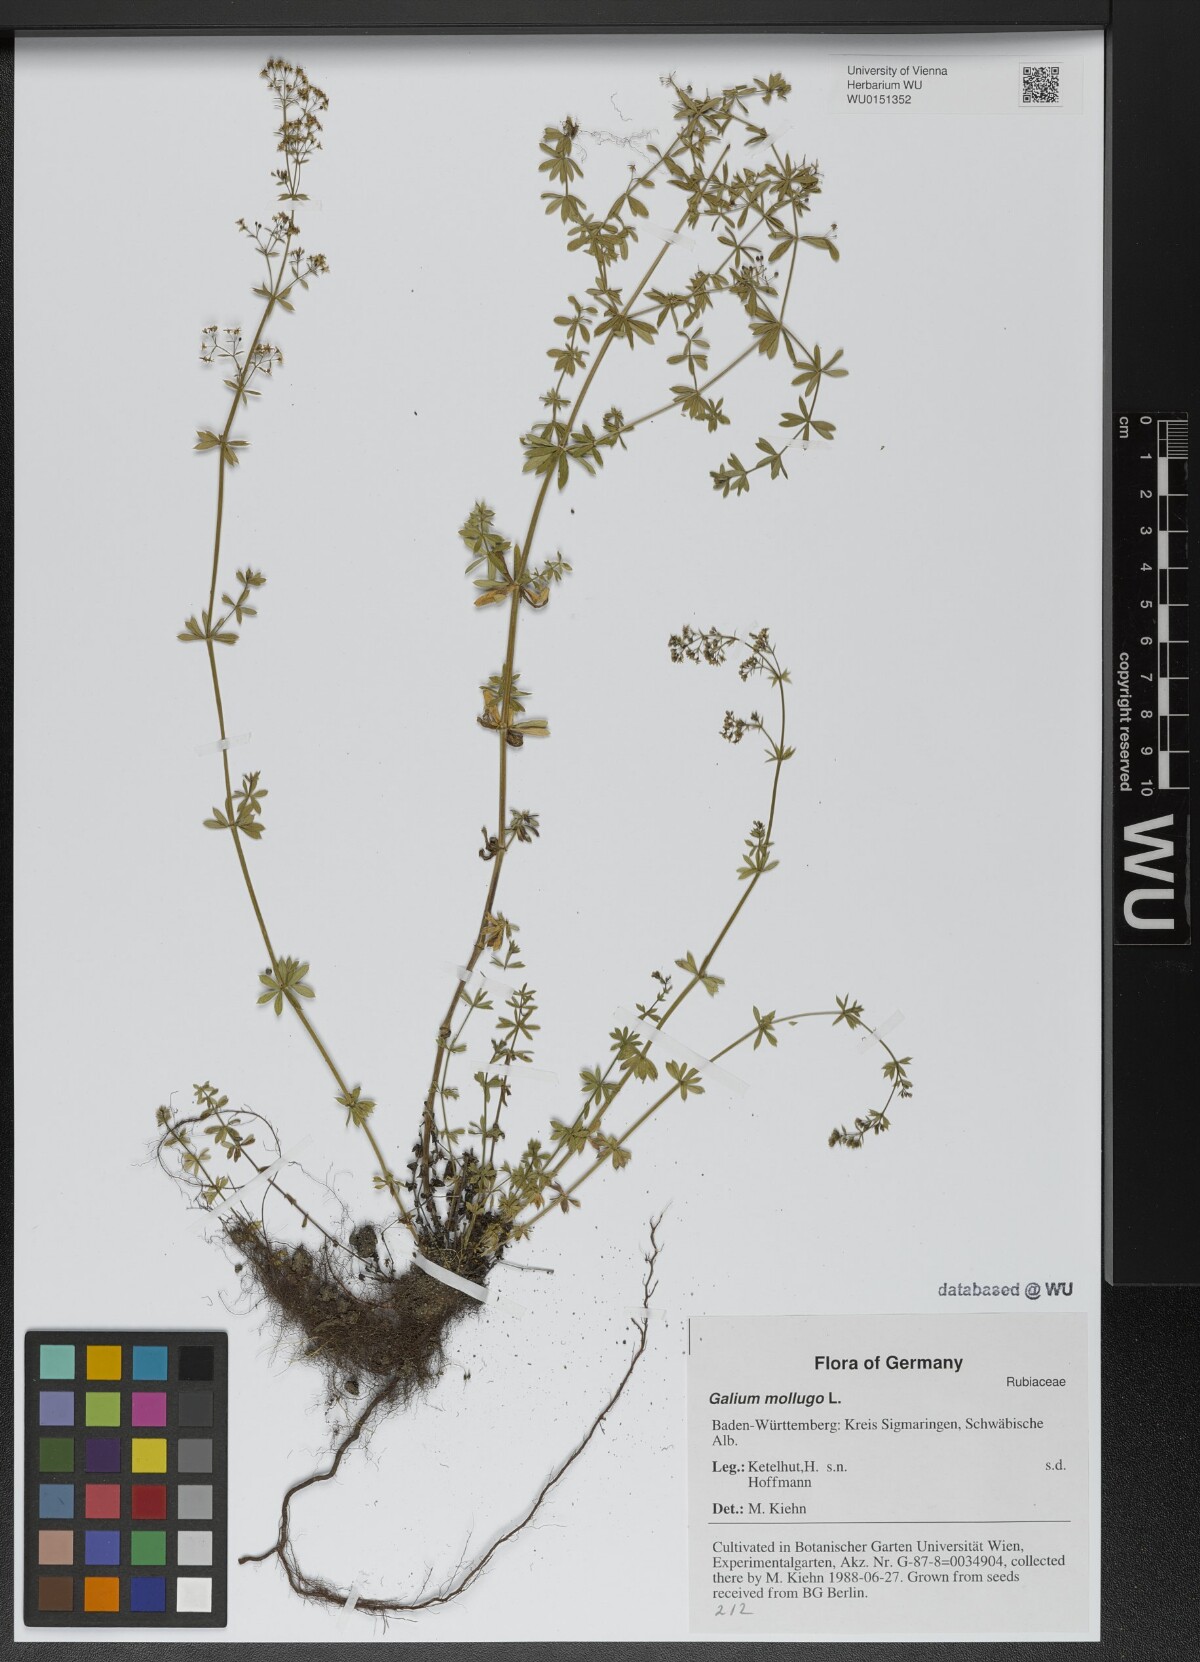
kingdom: Plantae
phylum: Tracheophyta
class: Magnoliopsida
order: Gentianales
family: Rubiaceae
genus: Galium
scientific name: Galium mollugo
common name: Hedge bedstraw
